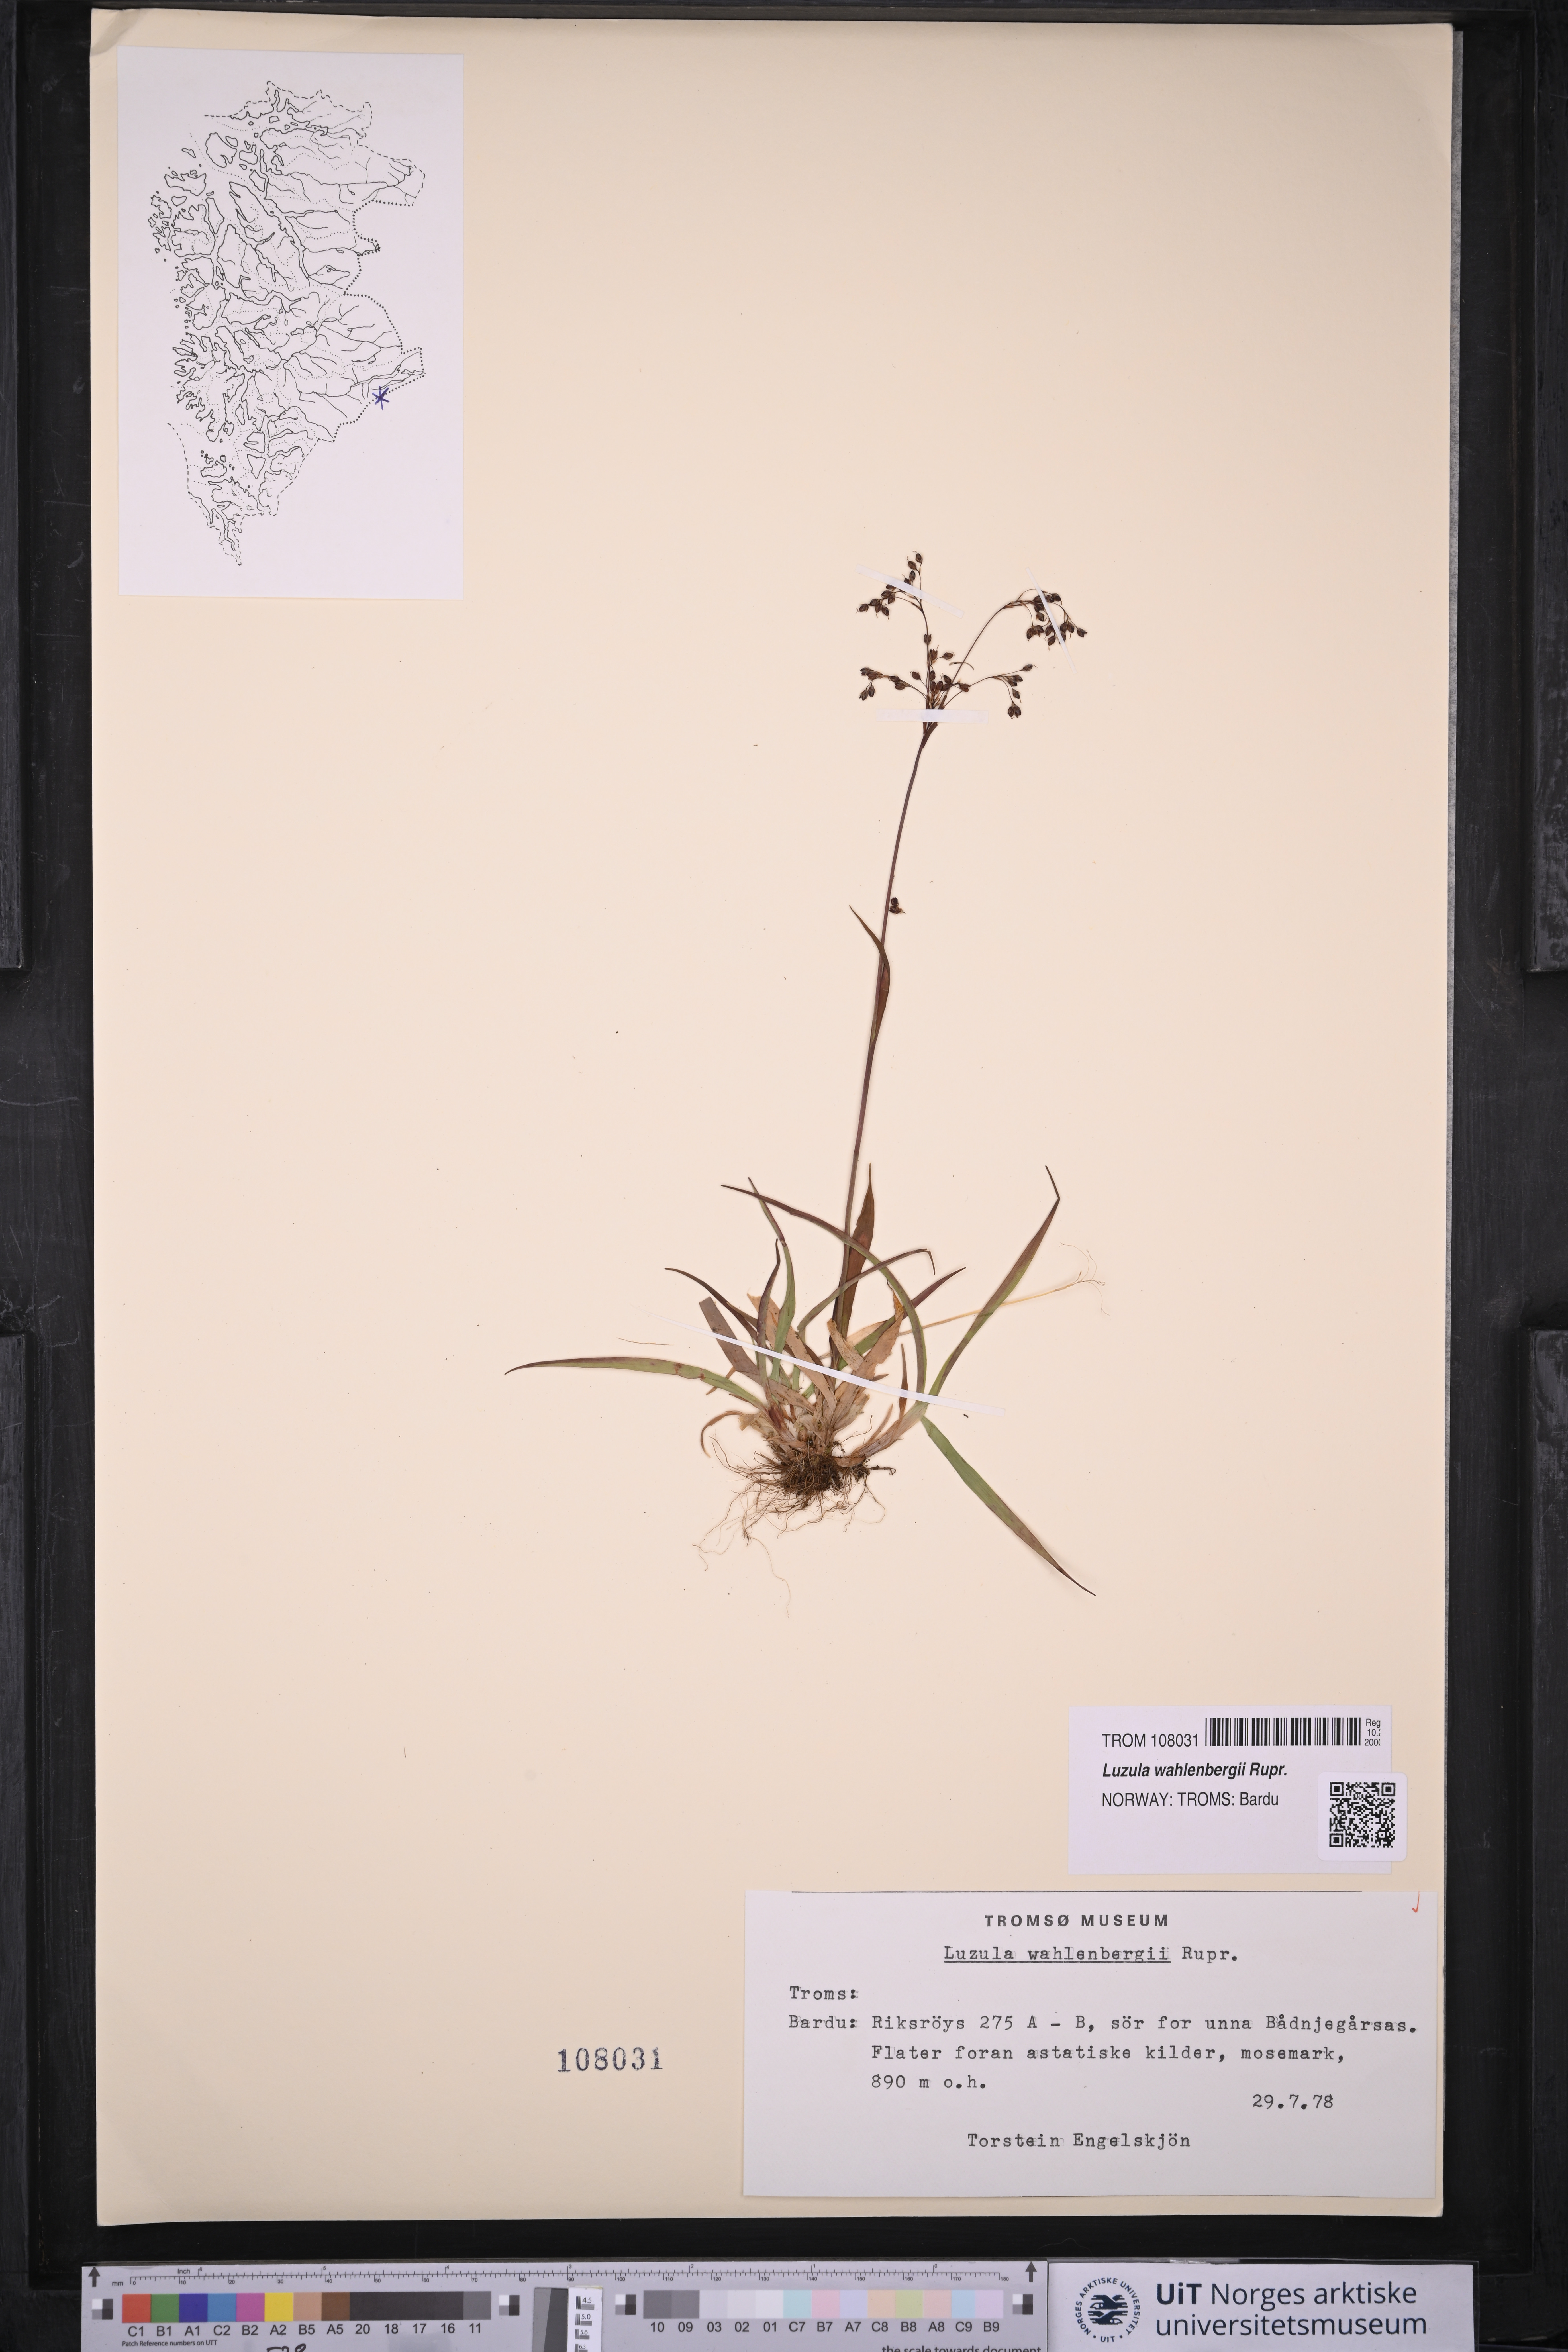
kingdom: Plantae
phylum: Tracheophyta
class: Liliopsida
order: Poales
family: Juncaceae
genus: Luzula
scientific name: Luzula wahlenbergii
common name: Wahlenberg's wood-rush
